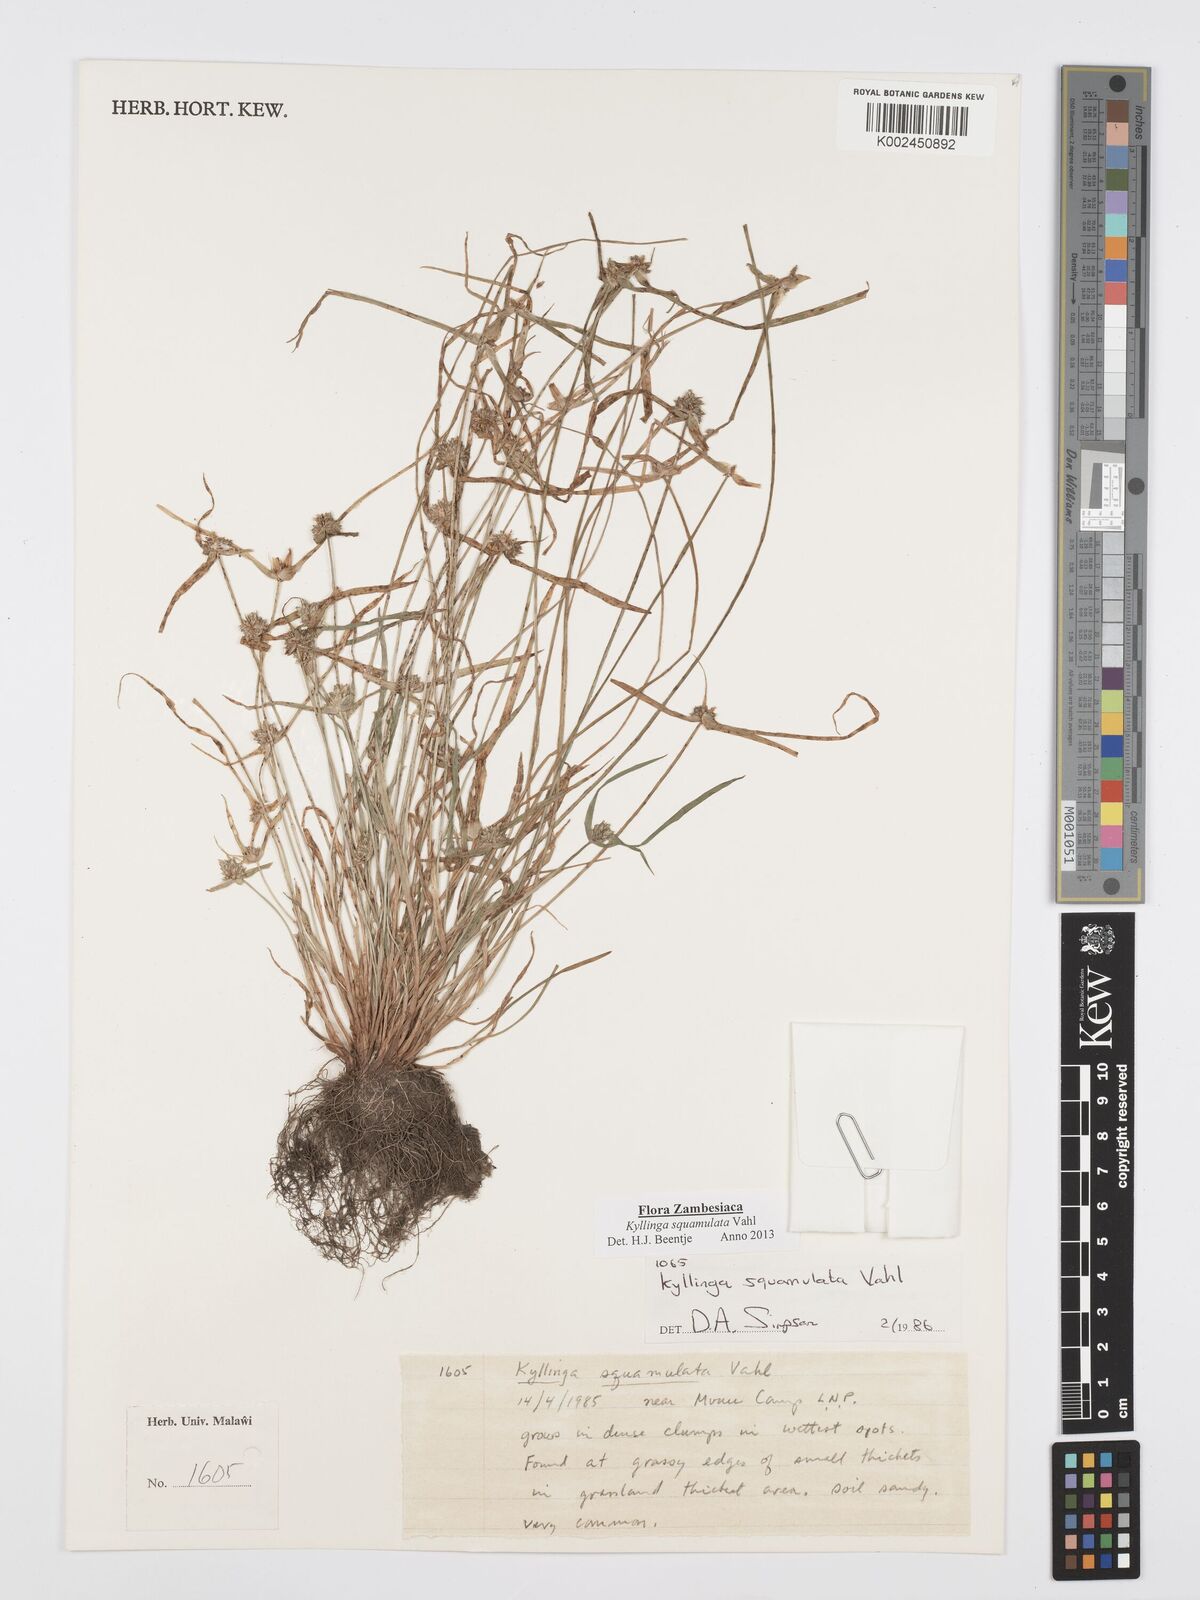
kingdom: Plantae
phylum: Tracheophyta
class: Liliopsida
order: Poales
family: Cyperaceae
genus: Cyperus
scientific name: Cyperus distans
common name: Slender cyperus
